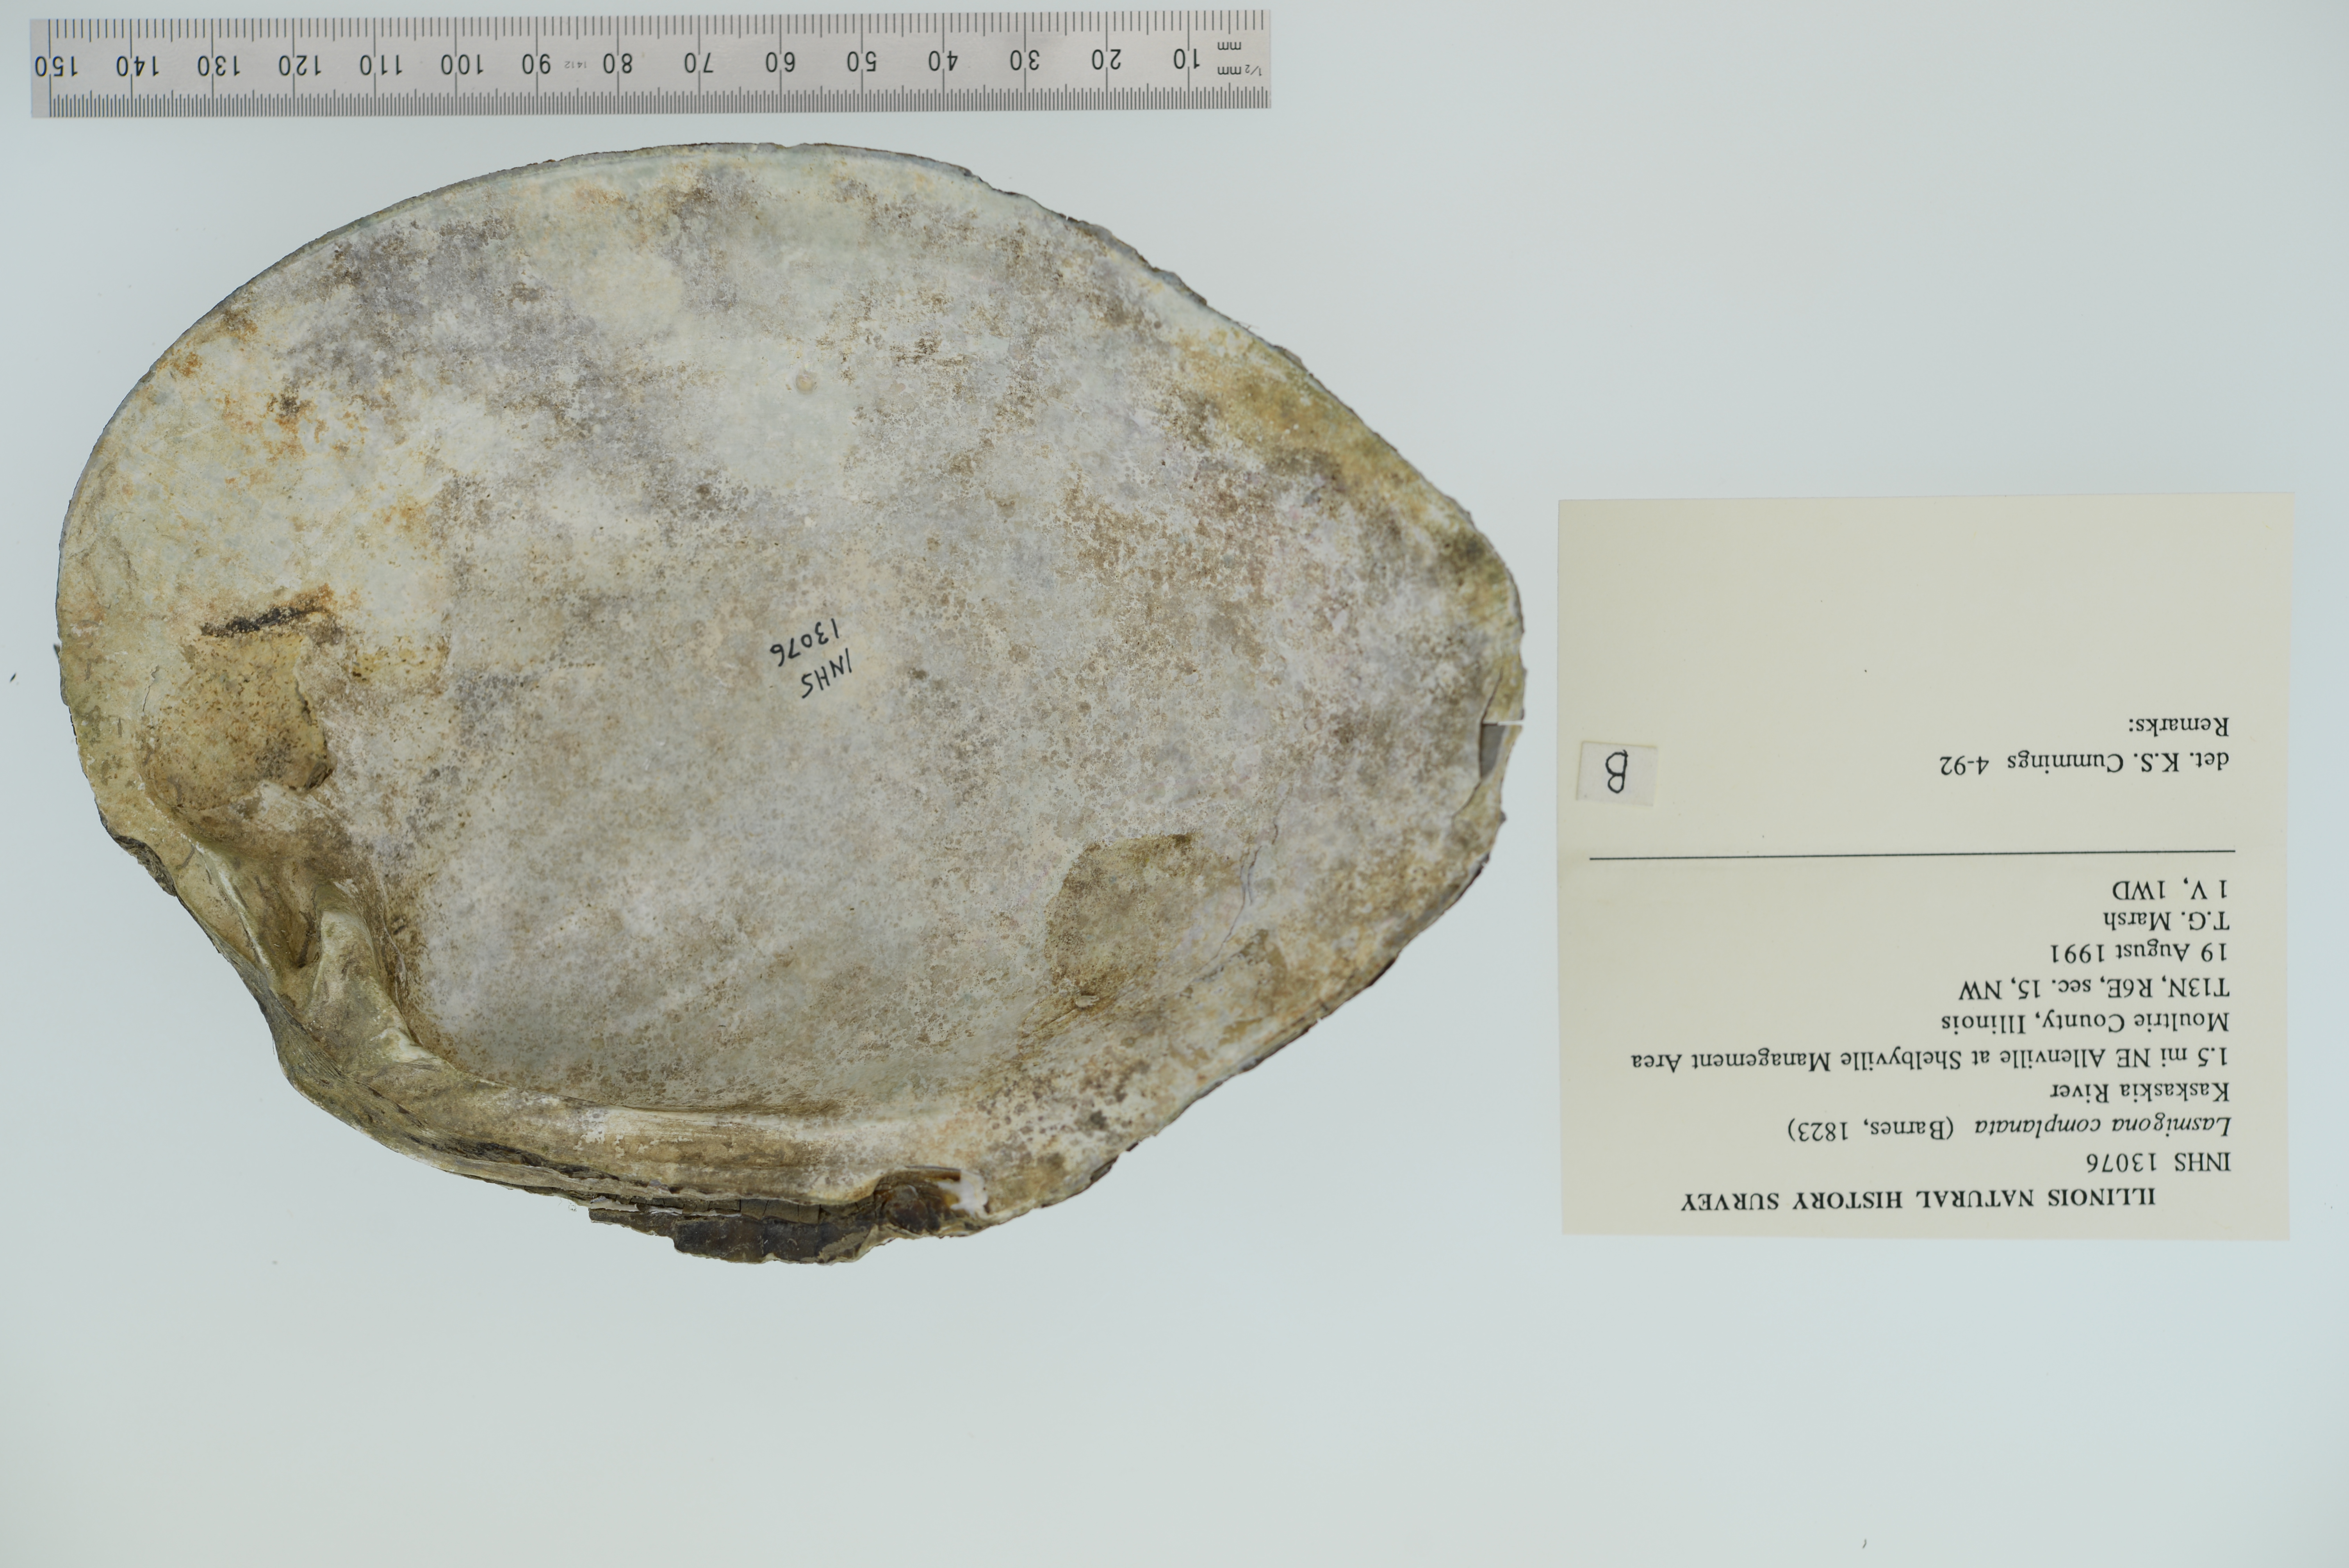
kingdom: Animalia
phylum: Mollusca
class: Bivalvia
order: Unionida
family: Unionidae
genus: Lasmigona
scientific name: Lasmigona complanata
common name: White heelsplitter
